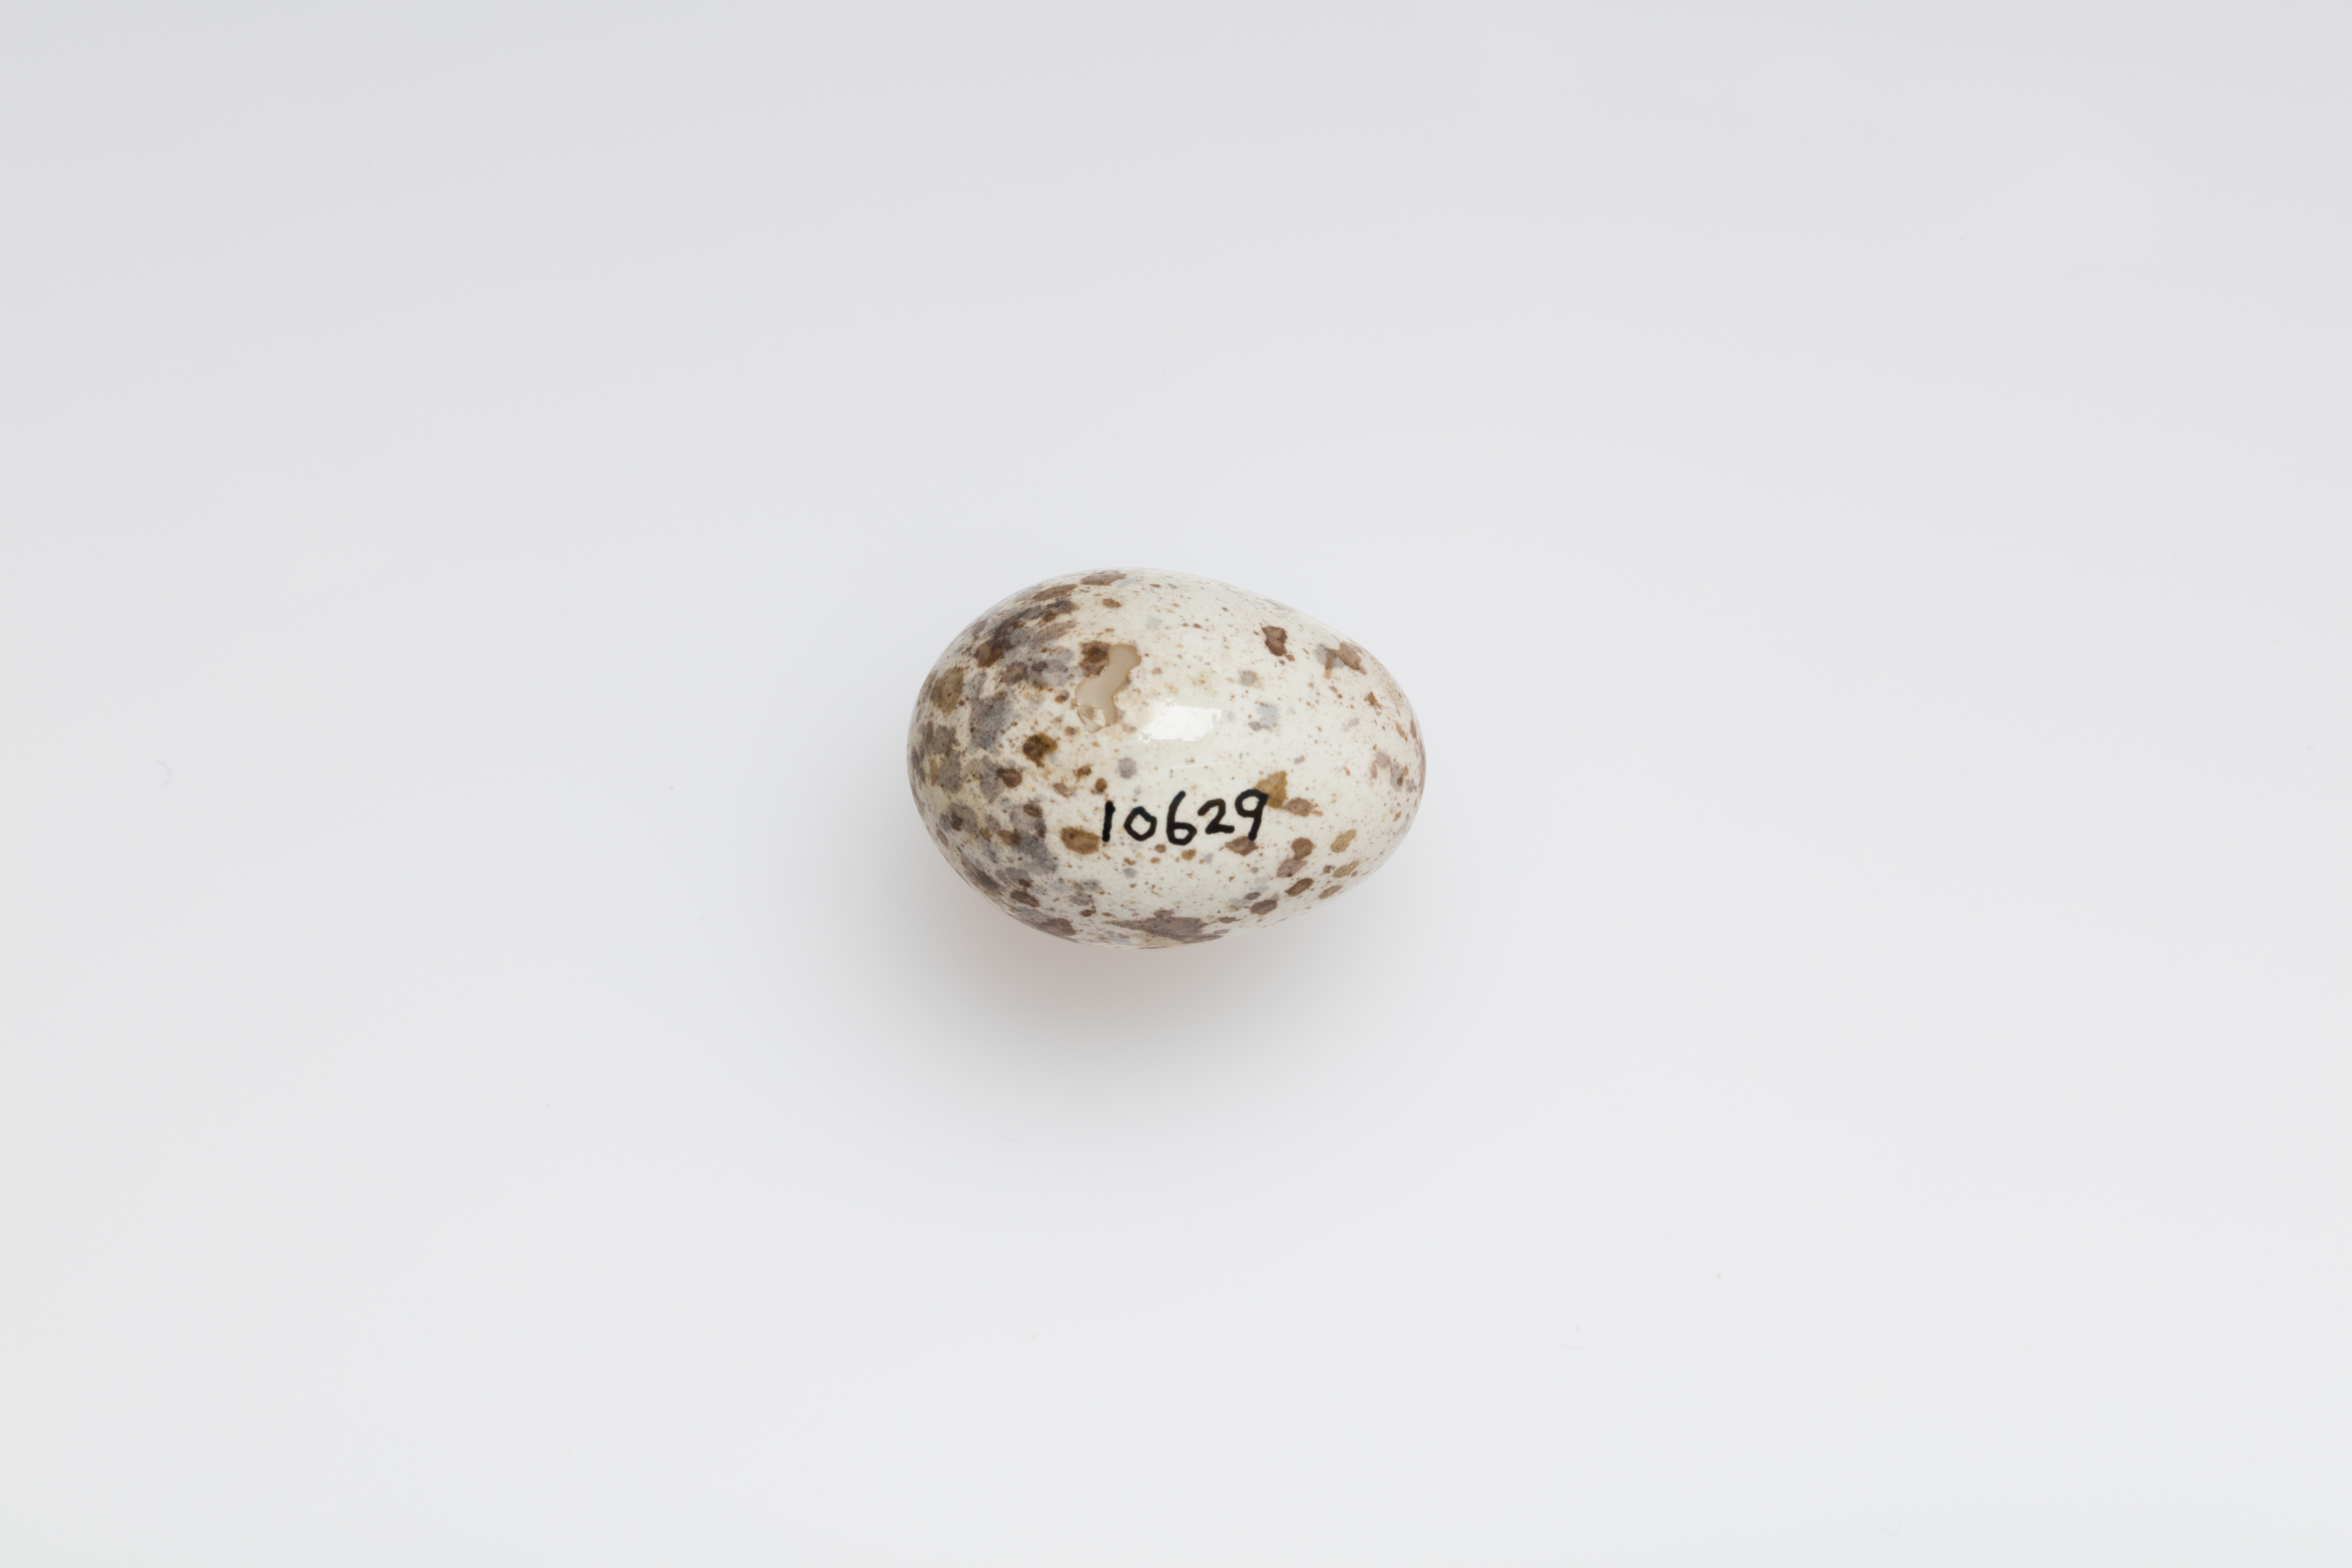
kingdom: Animalia
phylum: Chordata
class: Aves
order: Passeriformes
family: Passeridae
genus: Passer
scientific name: Passer domesticus
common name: House sparrow
